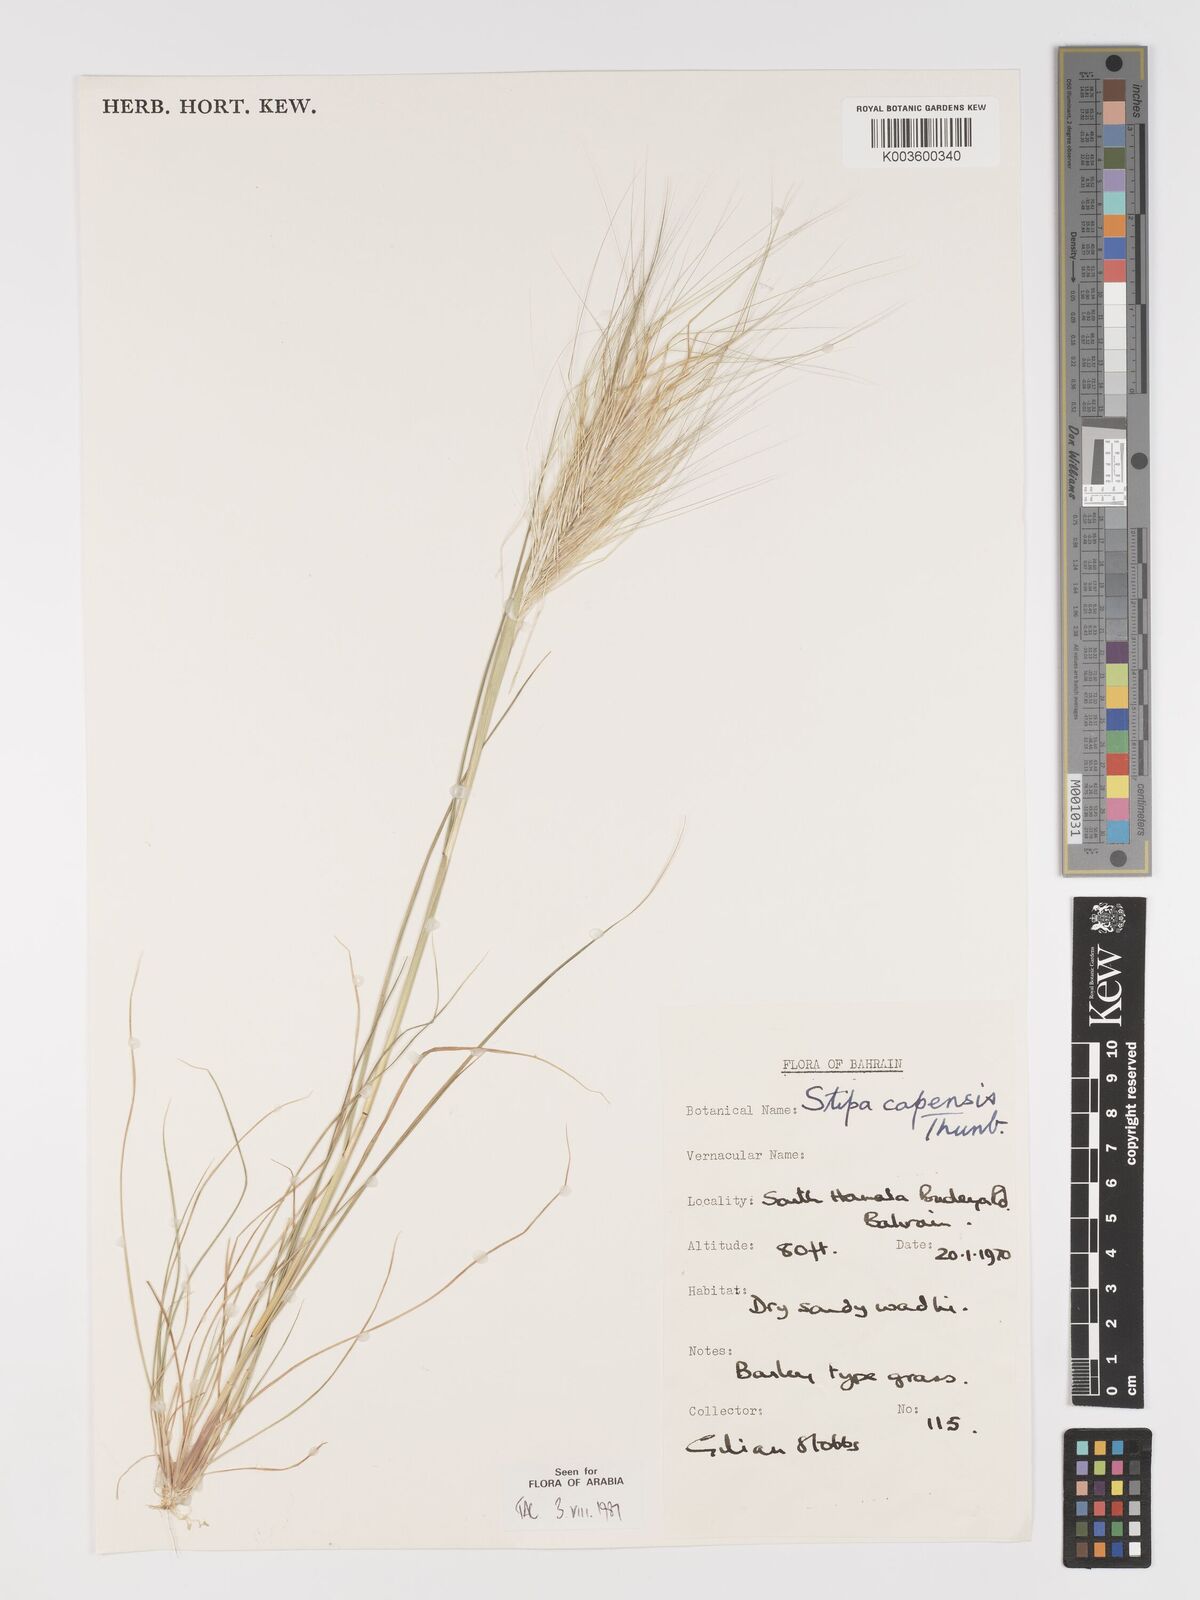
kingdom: Plantae
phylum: Tracheophyta
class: Liliopsida
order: Poales
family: Poaceae
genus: Stipellula
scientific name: Stipellula capensis
